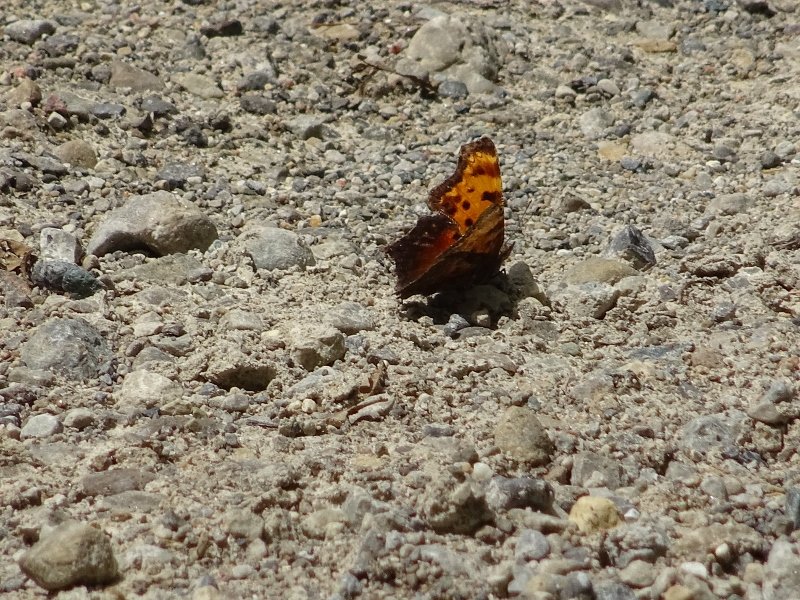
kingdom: Animalia
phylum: Arthropoda
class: Insecta
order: Lepidoptera
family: Nymphalidae
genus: Polygonia
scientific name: Polygonia progne
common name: Gray Comma
